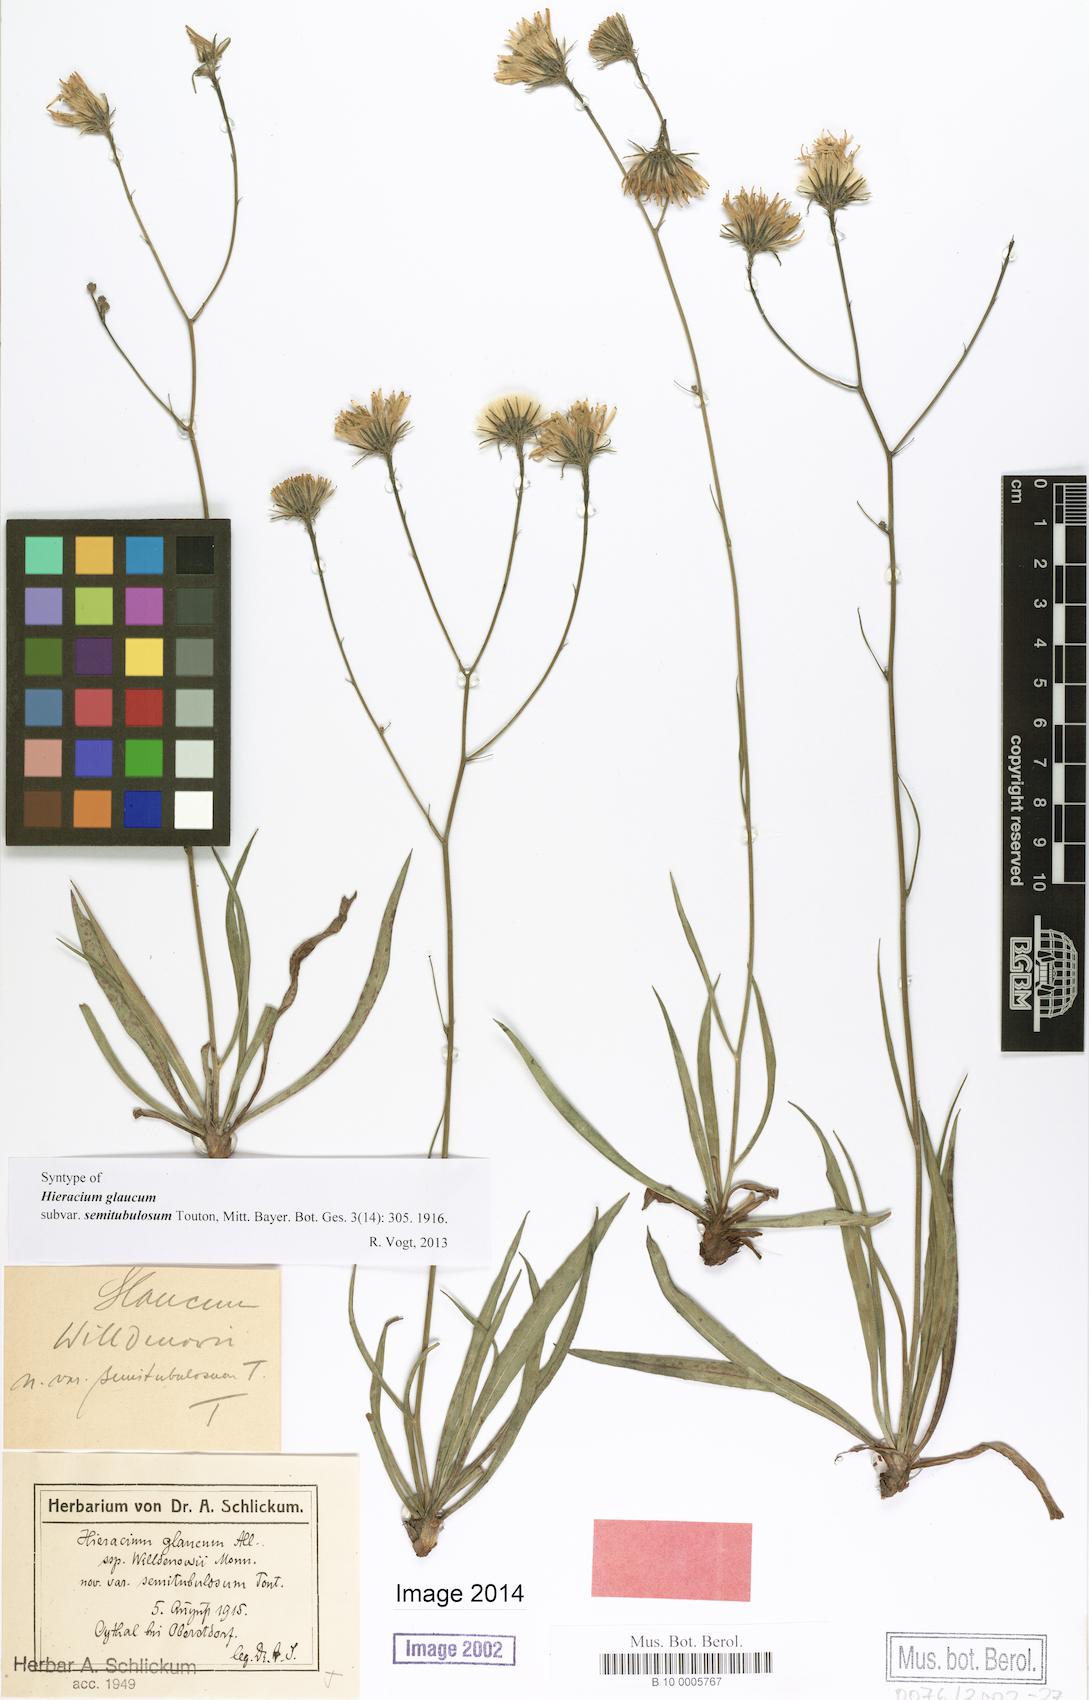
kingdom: Plantae
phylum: Tracheophyta
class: Magnoliopsida
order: Asterales
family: Asteraceae
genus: Hieracium
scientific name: Hieracium glaucum
